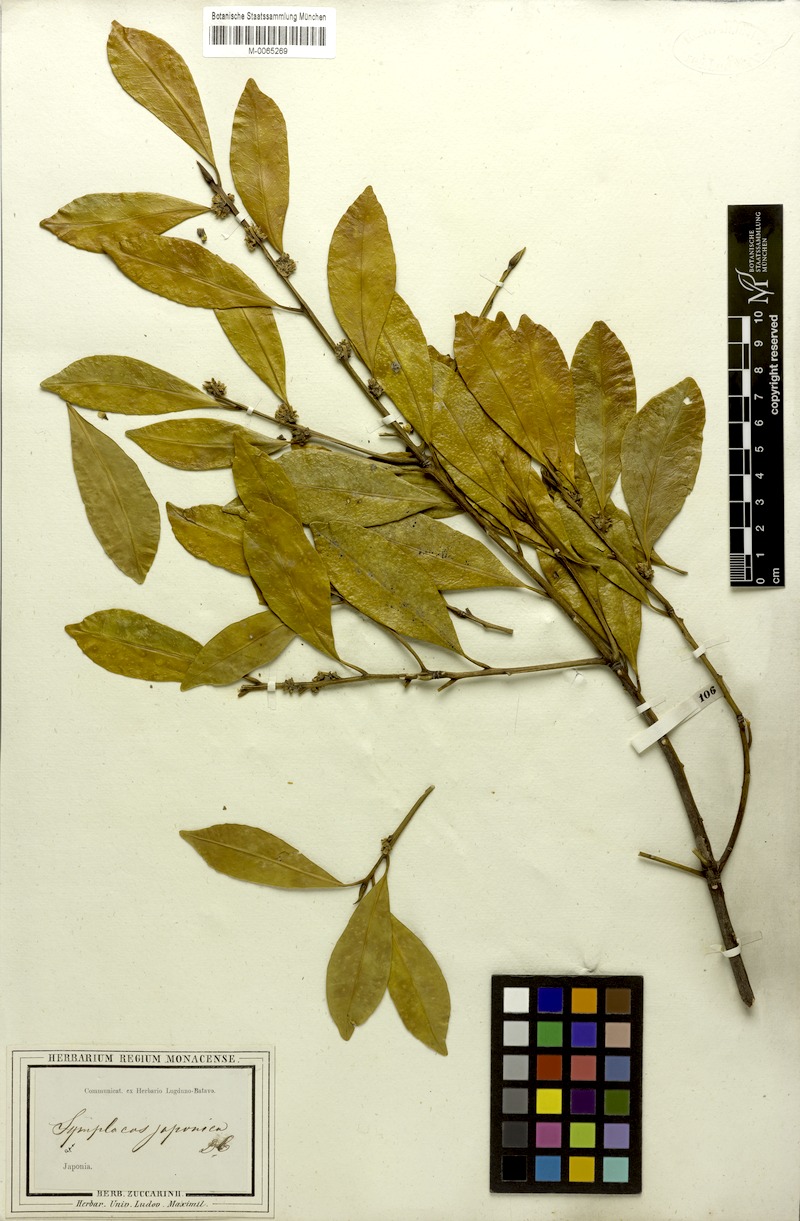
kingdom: Plantae
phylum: Tracheophyta
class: Magnoliopsida
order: Rosales
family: Rosaceae
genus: Pourthiaea
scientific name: Pourthiaea villosa
